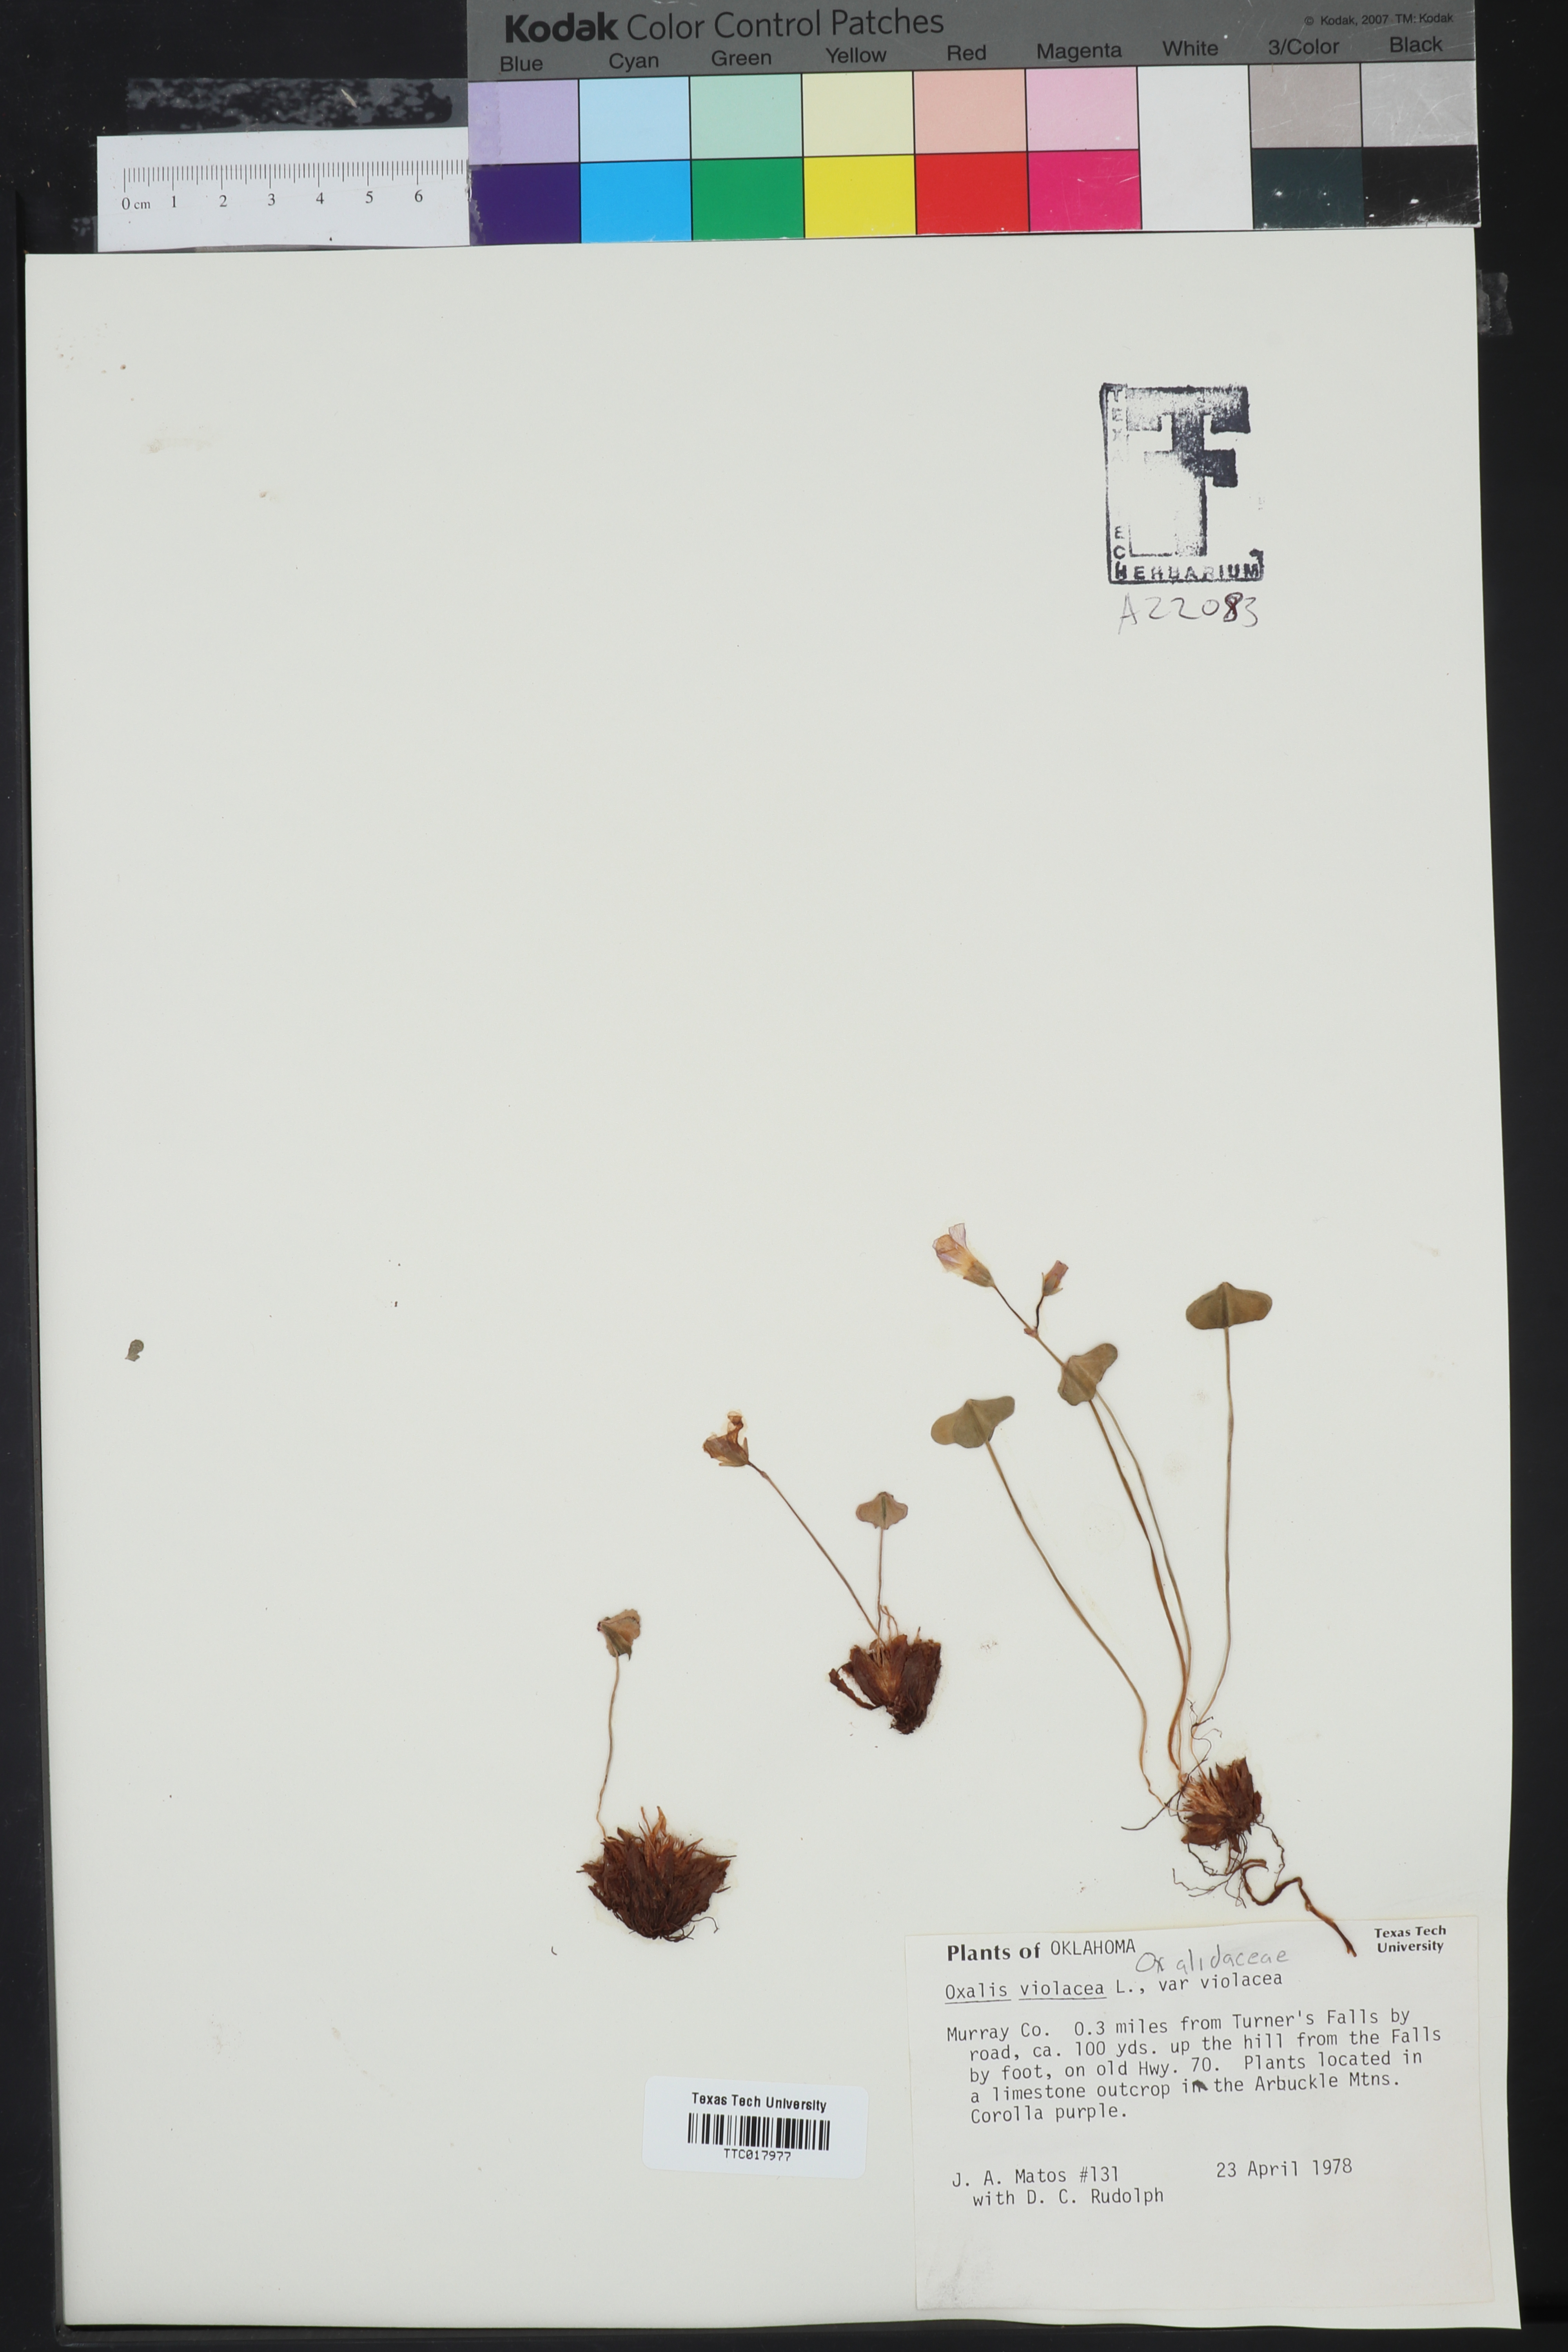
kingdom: Plantae
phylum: Tracheophyta
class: Magnoliopsida
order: Oxalidales
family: Oxalidaceae
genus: Oxalis
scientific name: Oxalis violacea
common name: Violet wood-sorrel
